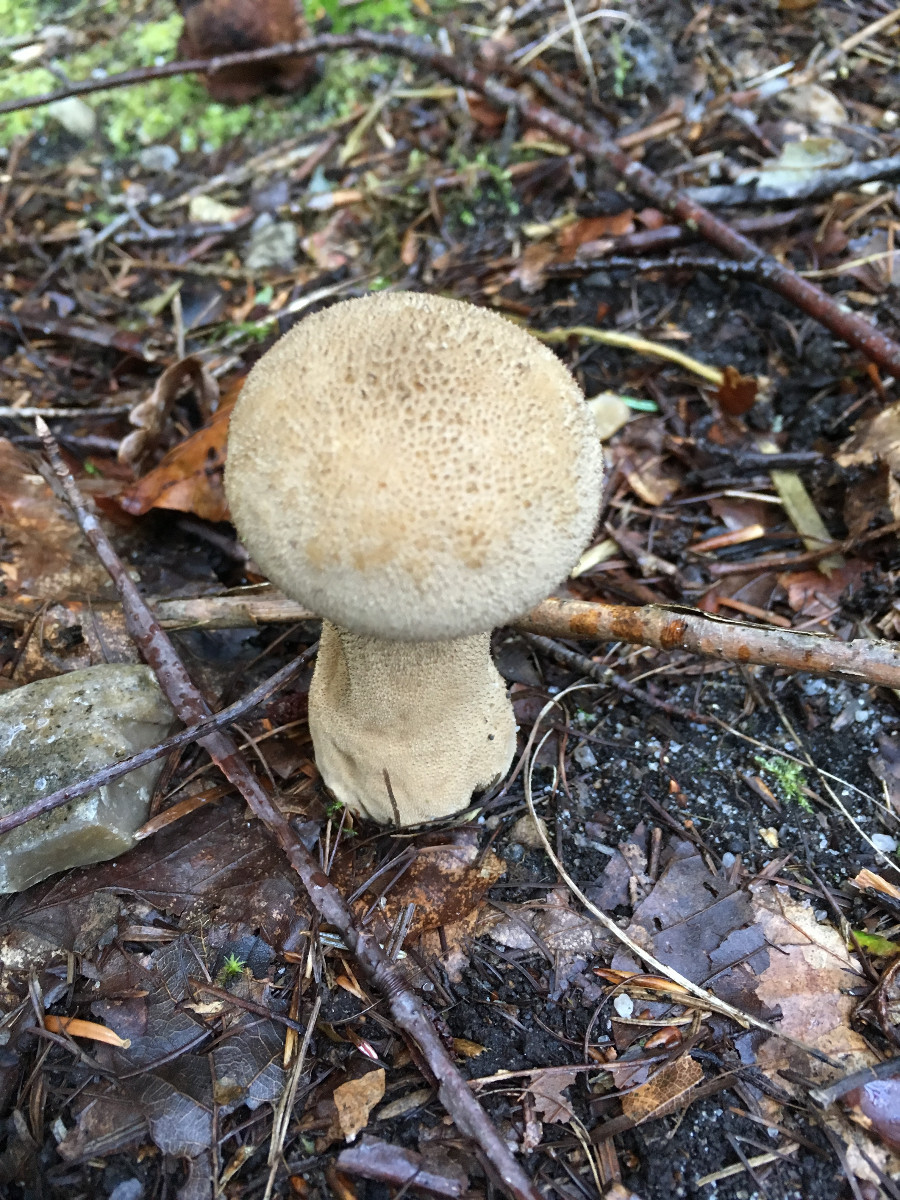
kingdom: Fungi
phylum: Basidiomycota
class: Agaricomycetes
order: Agaricales
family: Lycoperdaceae
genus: Lycoperdon
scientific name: Lycoperdon excipuliforme
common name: højstokket støvbold
